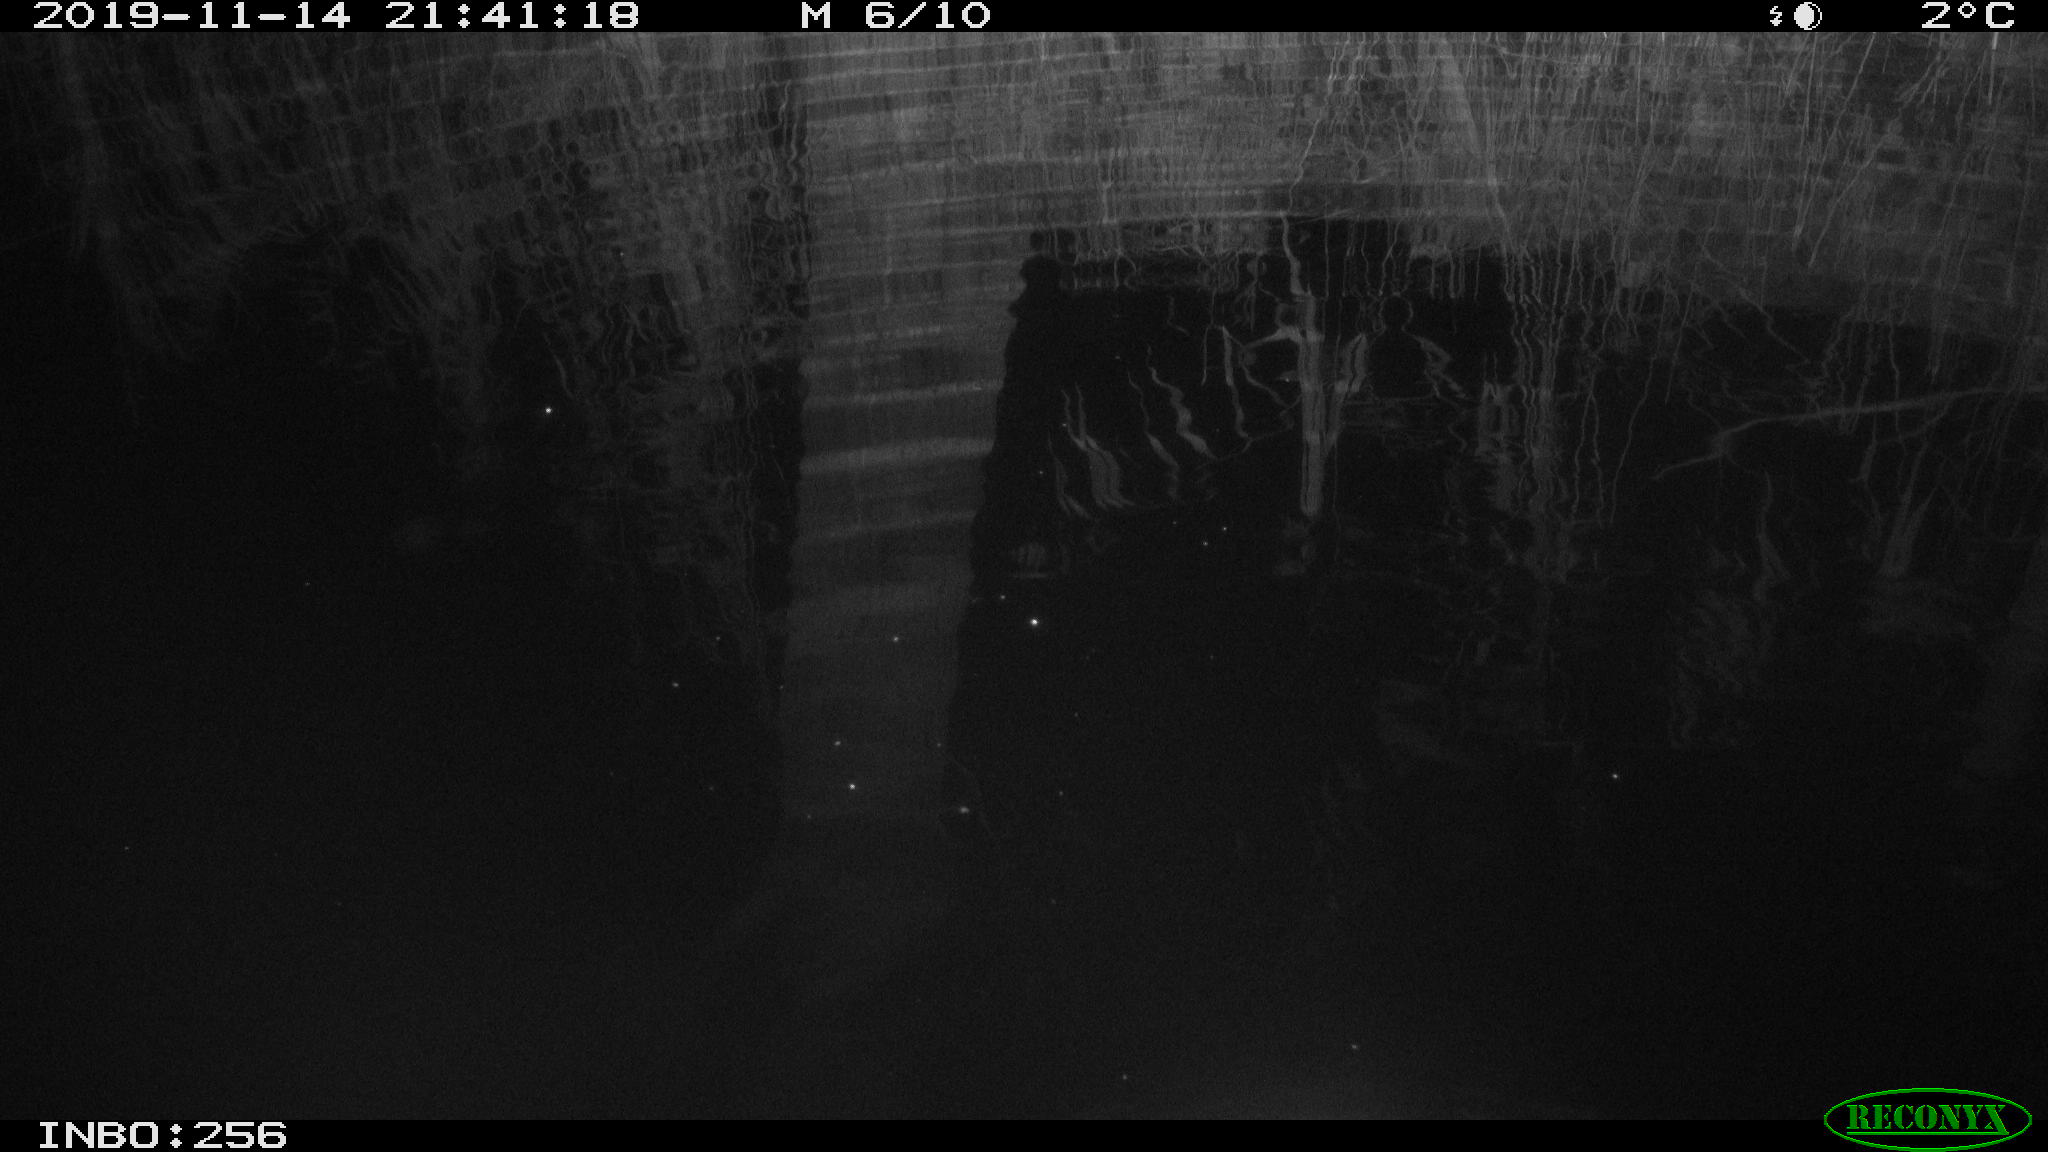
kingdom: Animalia
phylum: Chordata
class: Mammalia
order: Rodentia
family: Muridae
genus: Rattus
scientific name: Rattus norvegicus
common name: Brown rat
